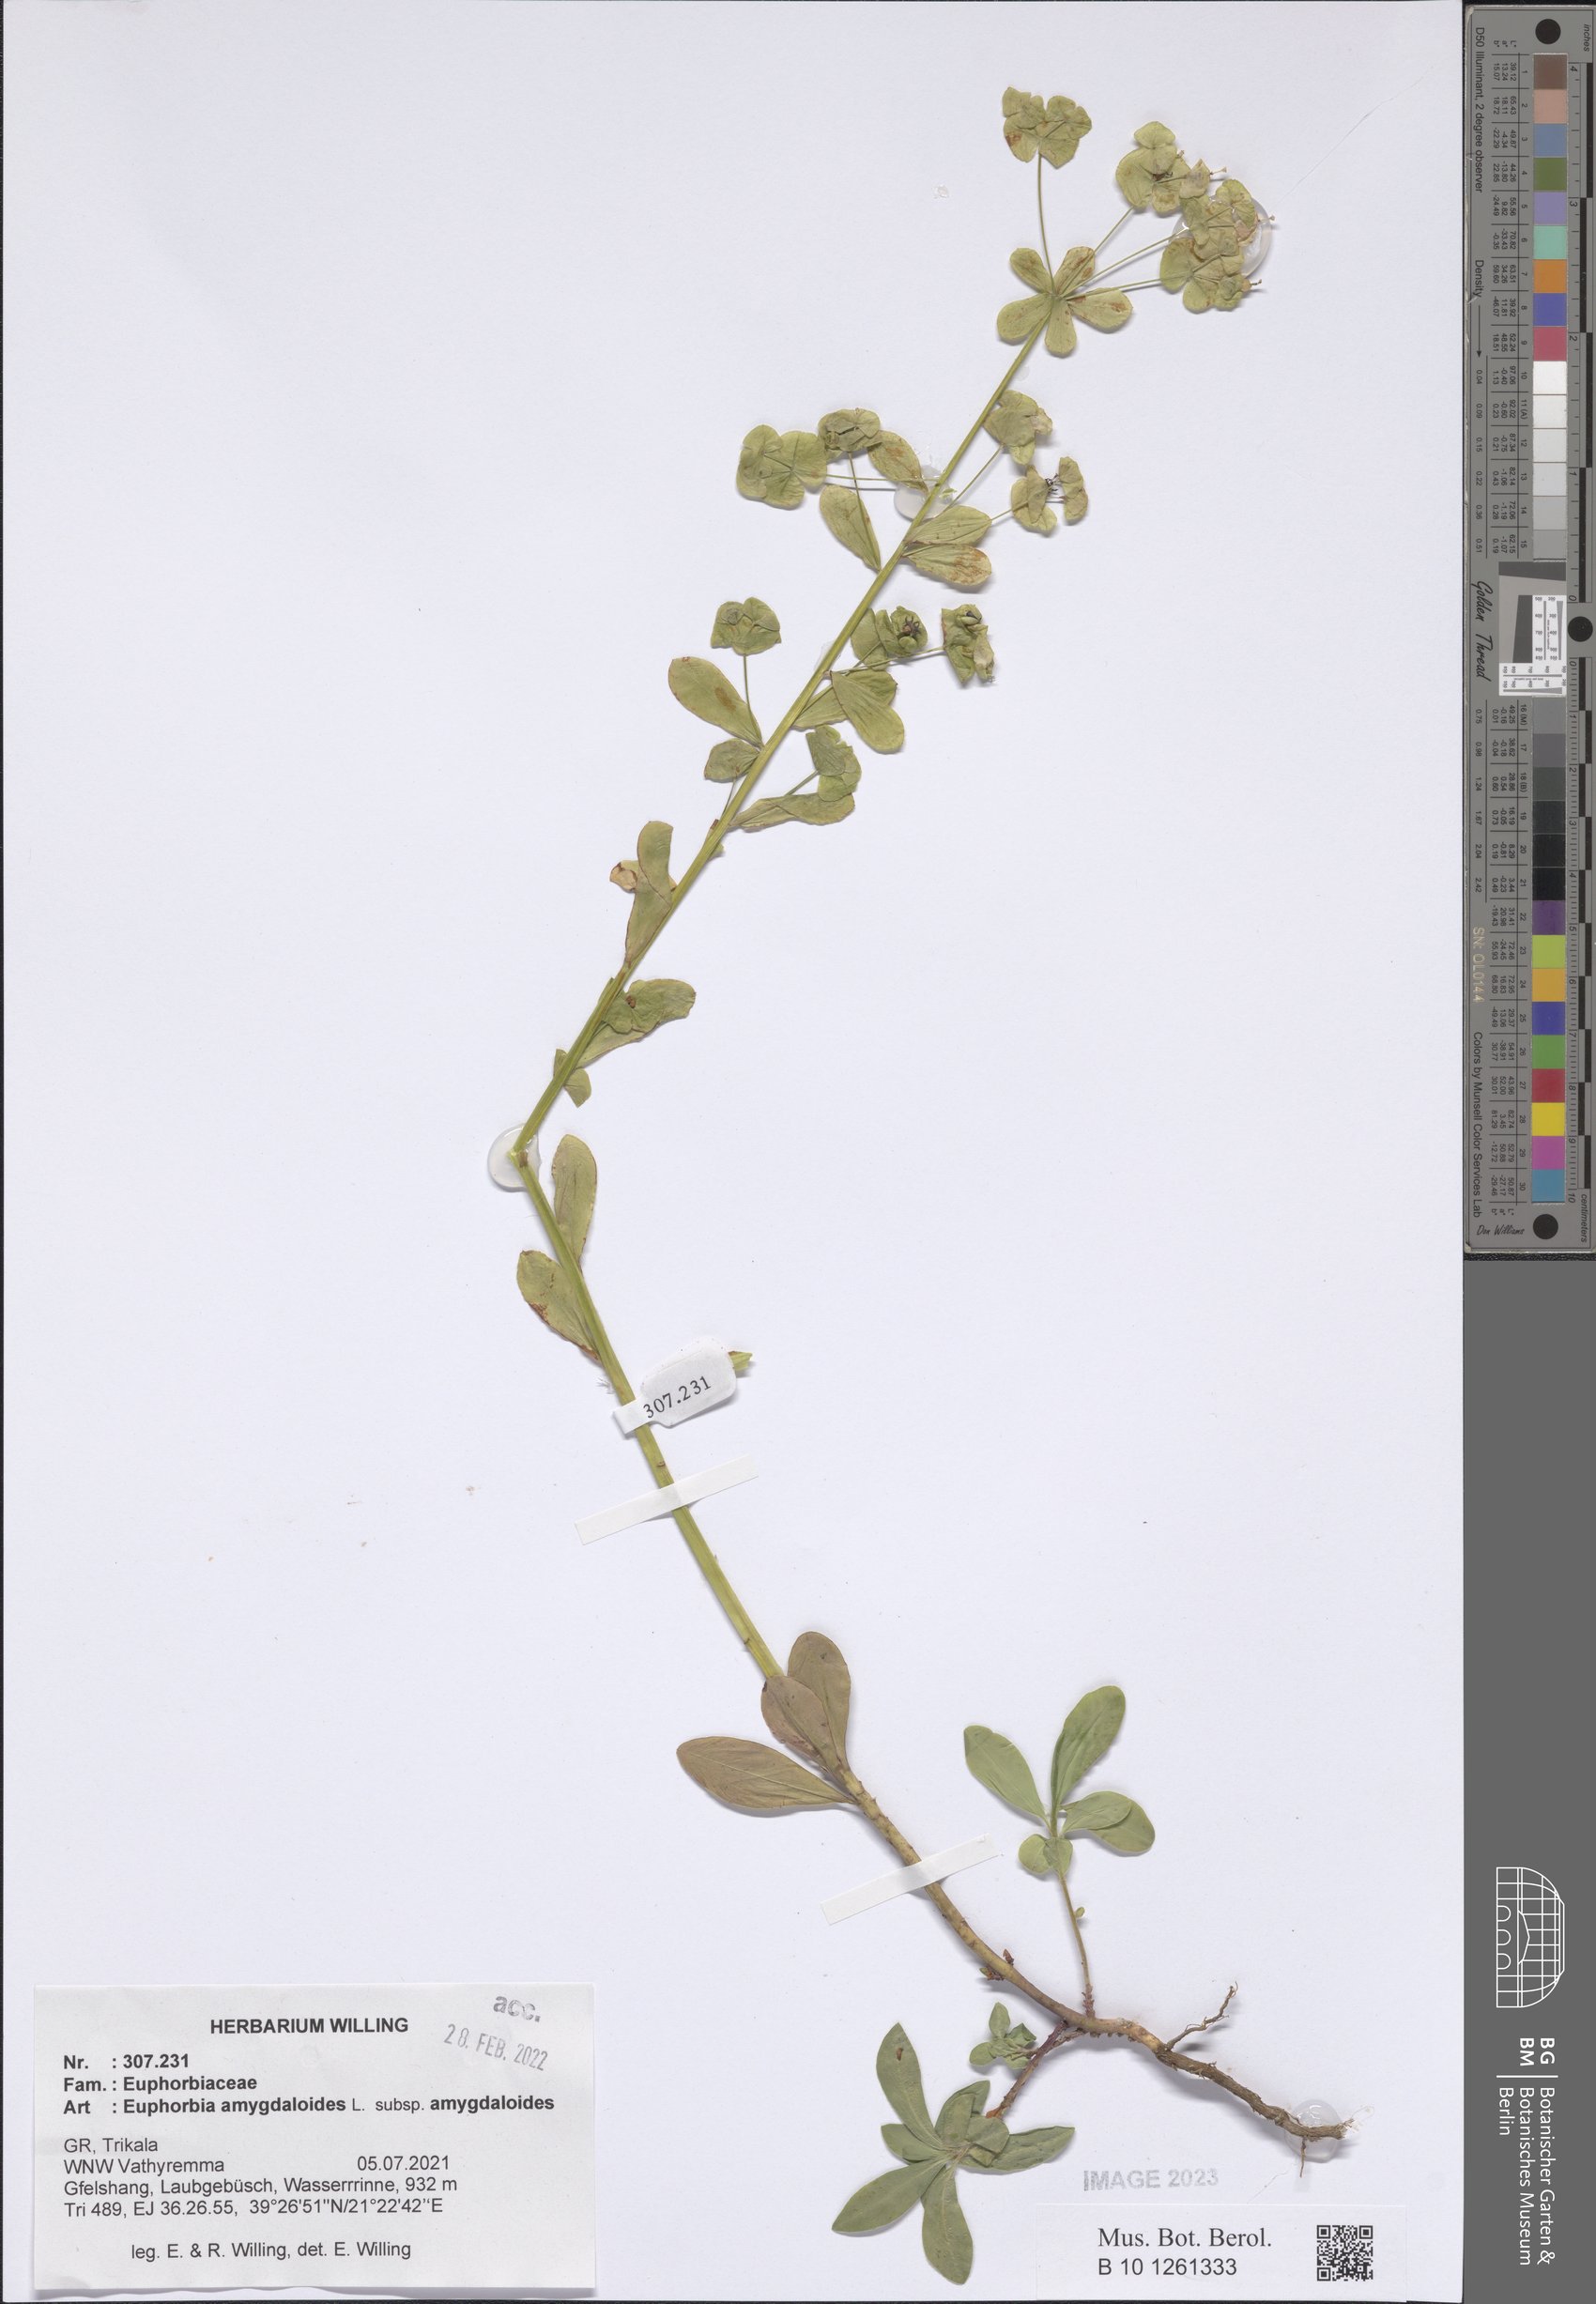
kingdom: Plantae
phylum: Tracheophyta
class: Magnoliopsida
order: Malpighiales
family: Euphorbiaceae
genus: Euphorbia
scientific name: Euphorbia amygdaloides
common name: Wood spurge
